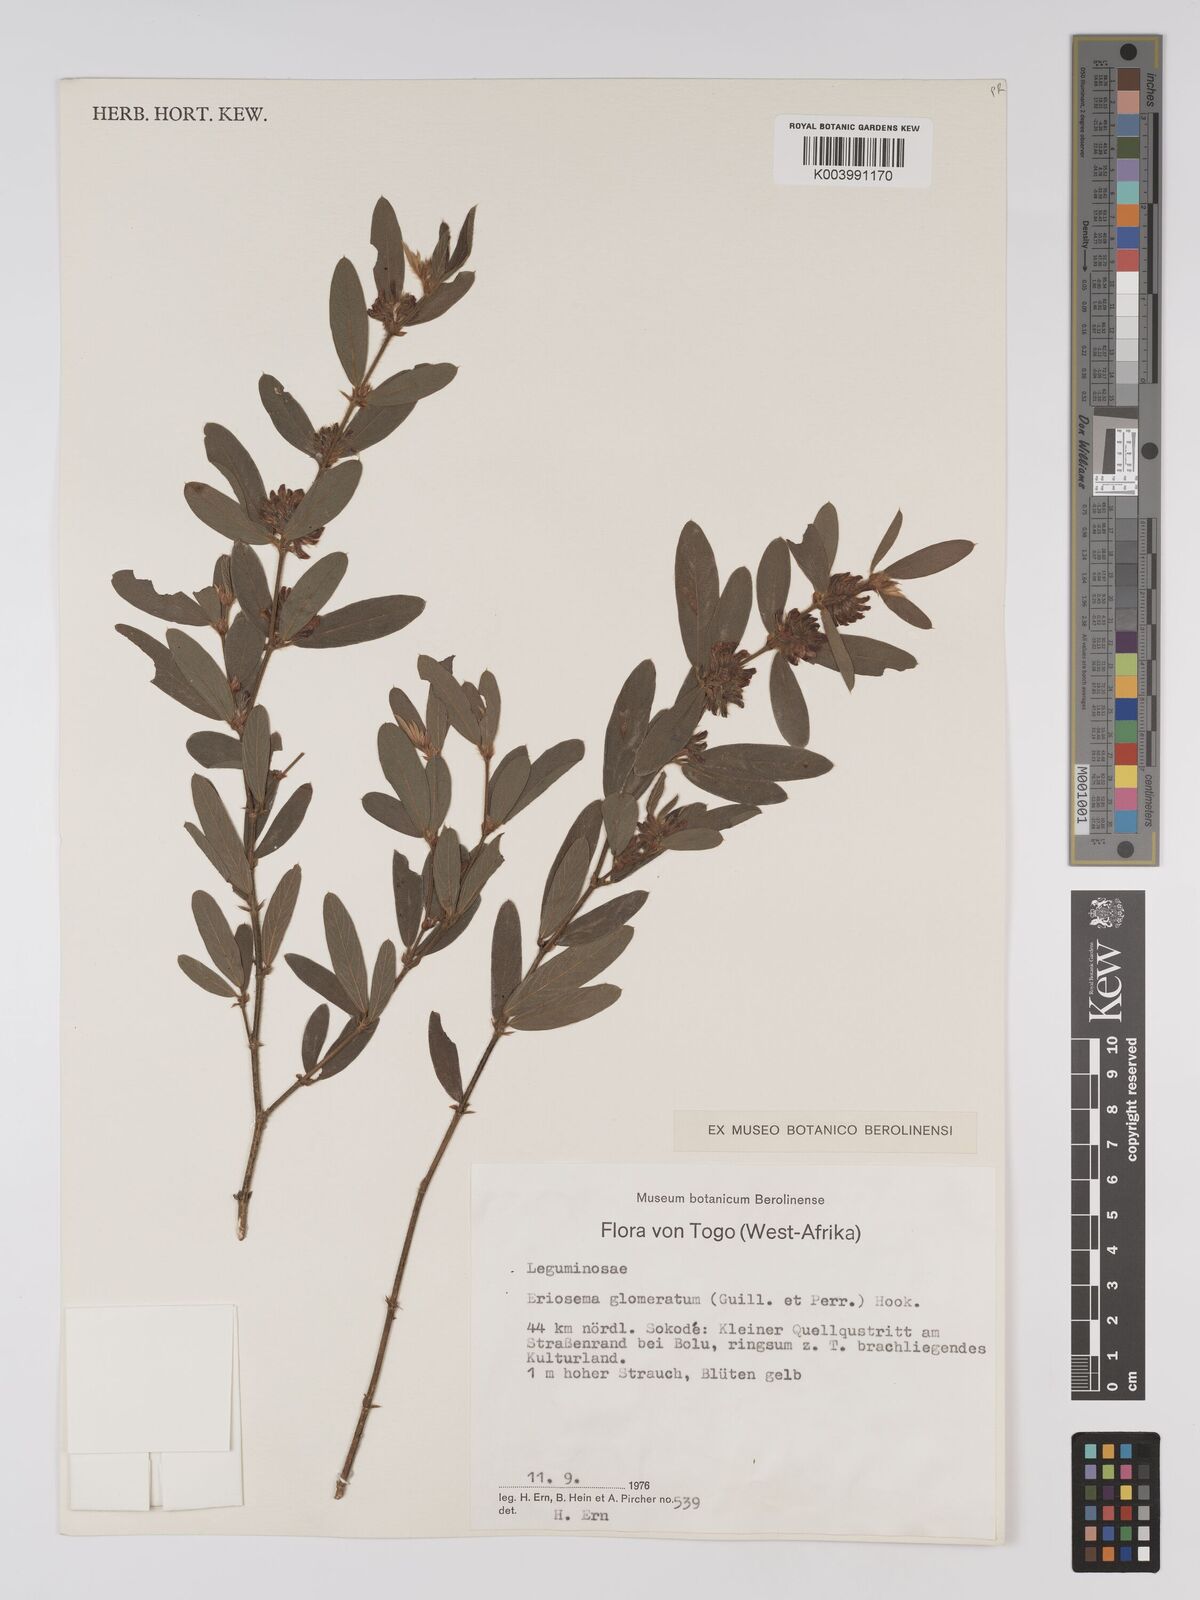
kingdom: Plantae
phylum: Tracheophyta
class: Magnoliopsida
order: Fabales
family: Fabaceae
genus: Eriosema
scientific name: Eriosema glomeratum
